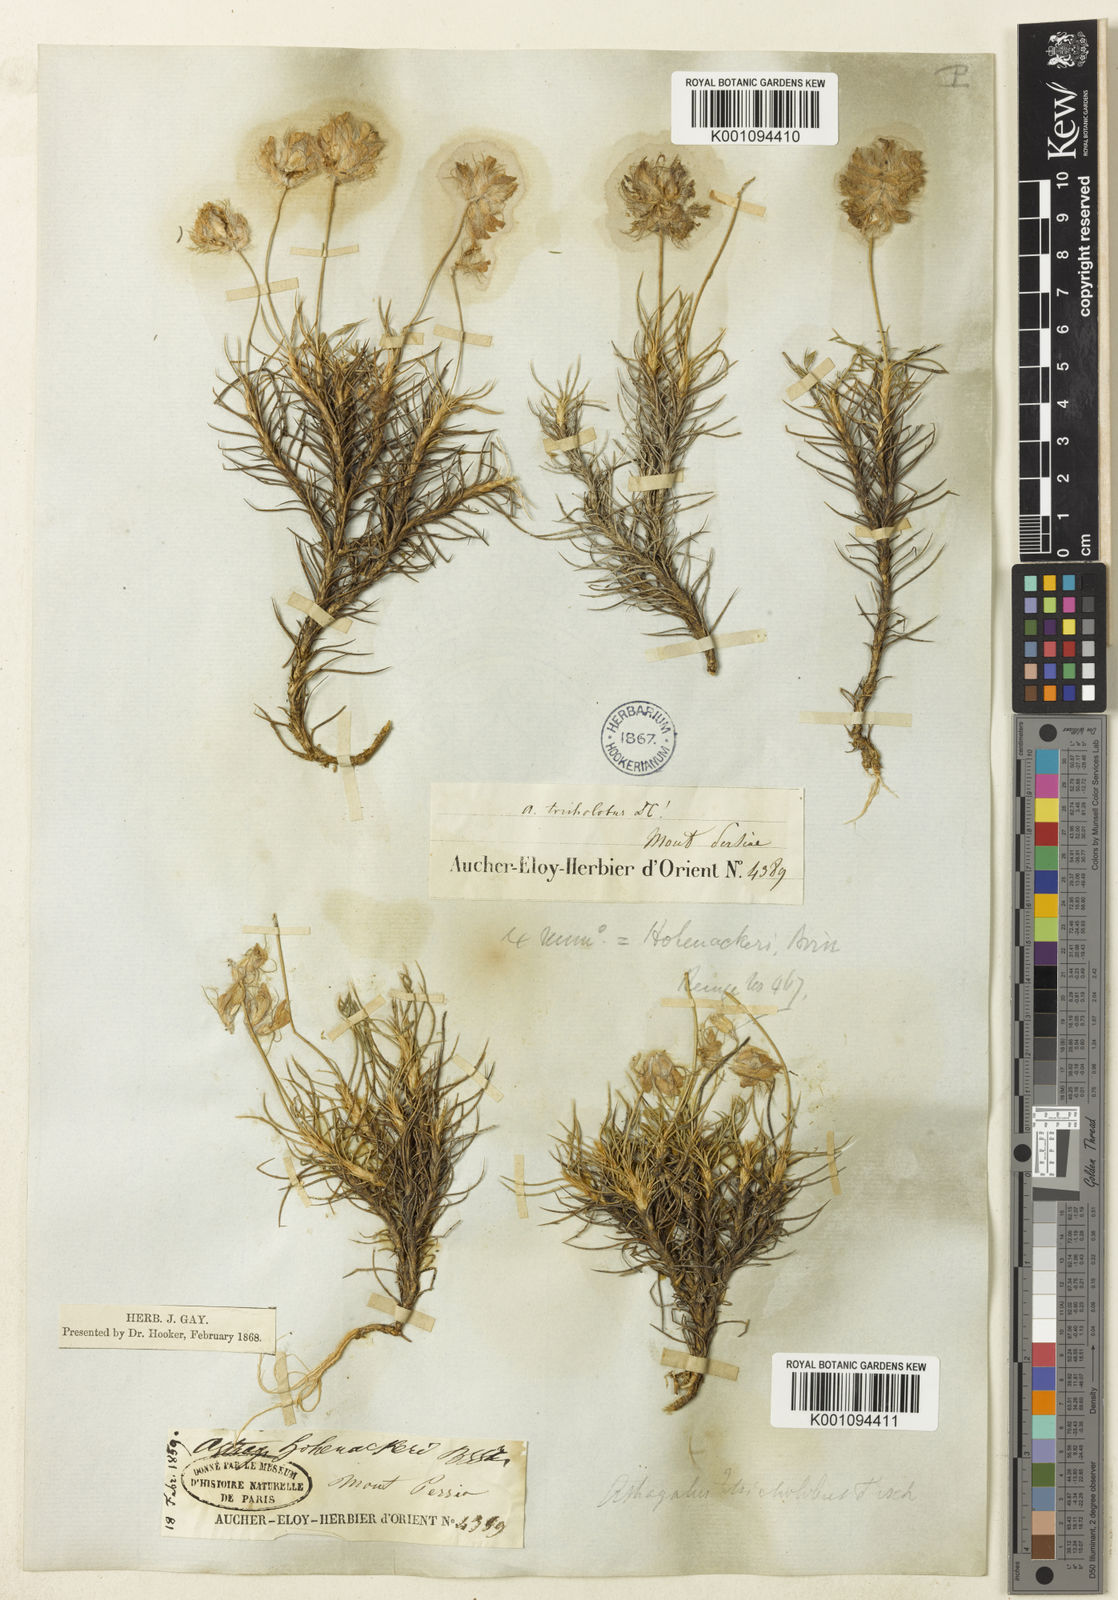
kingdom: Plantae
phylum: Tracheophyta
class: Magnoliopsida
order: Fabales
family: Fabaceae
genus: Astragalus
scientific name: Astragalus
